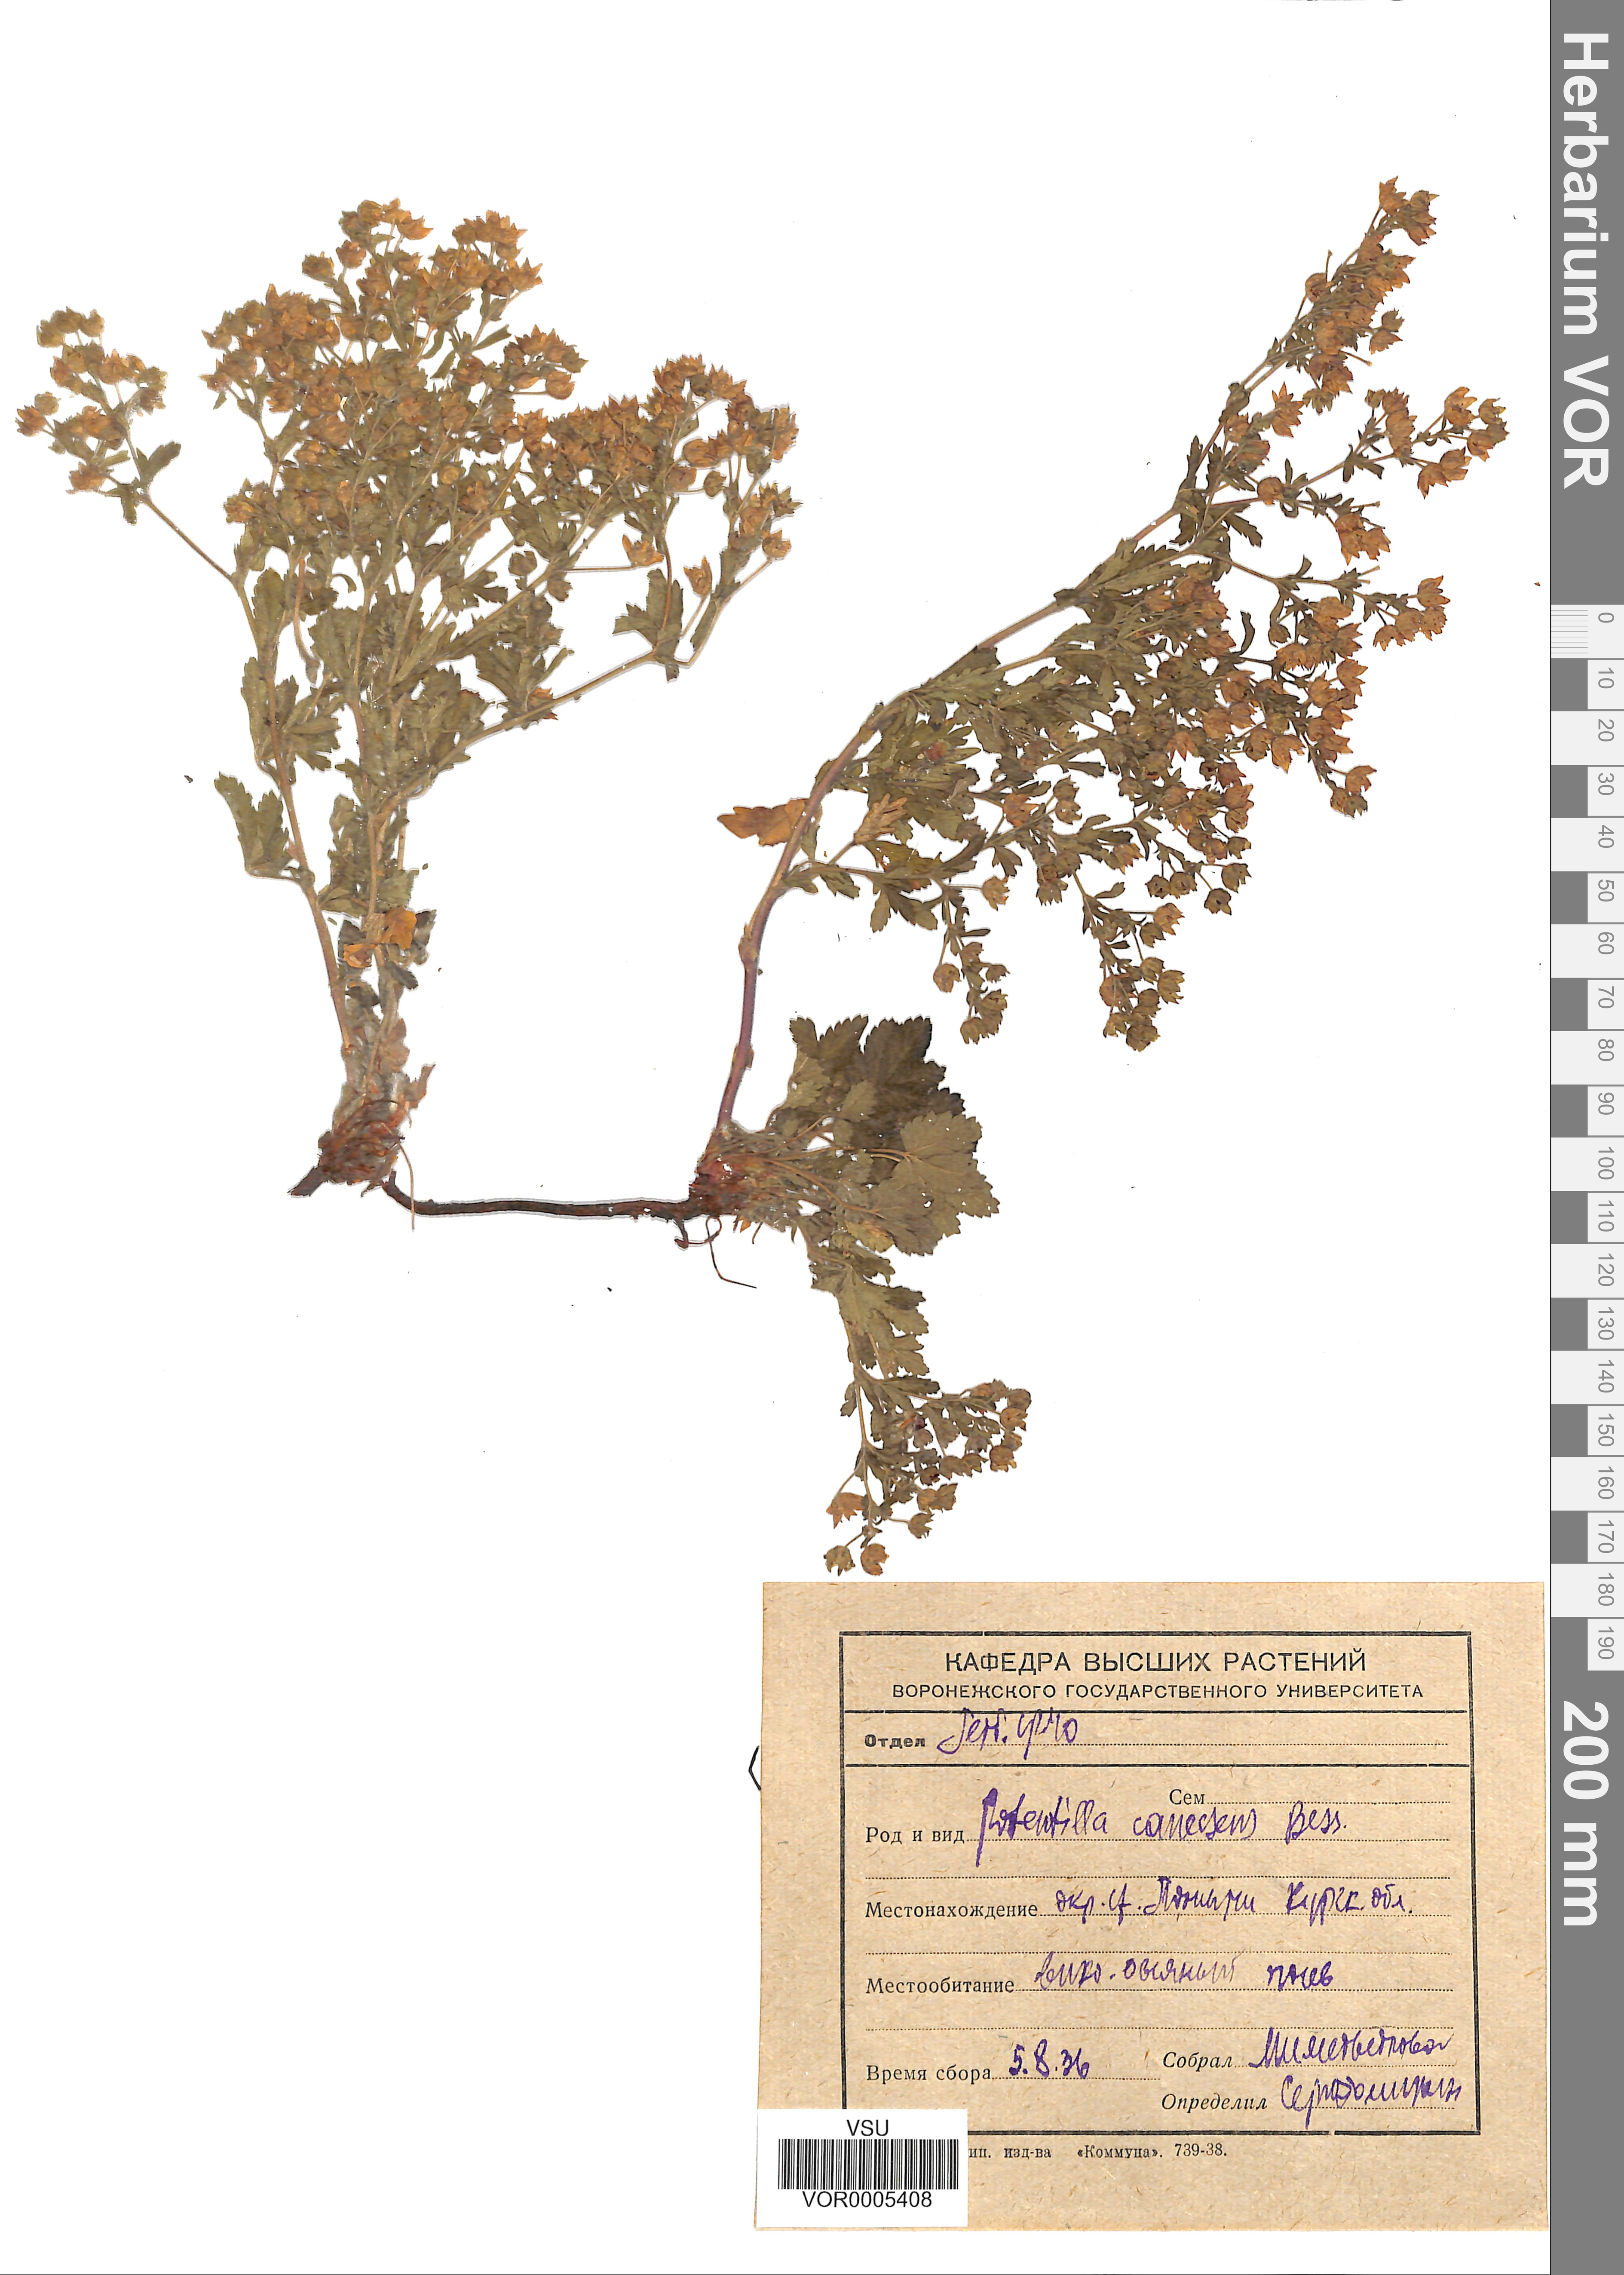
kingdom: Plantae
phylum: Tracheophyta
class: Magnoliopsida
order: Rosales
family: Rosaceae
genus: Potentilla
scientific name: Potentilla inclinata
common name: Grey cinquefoil
